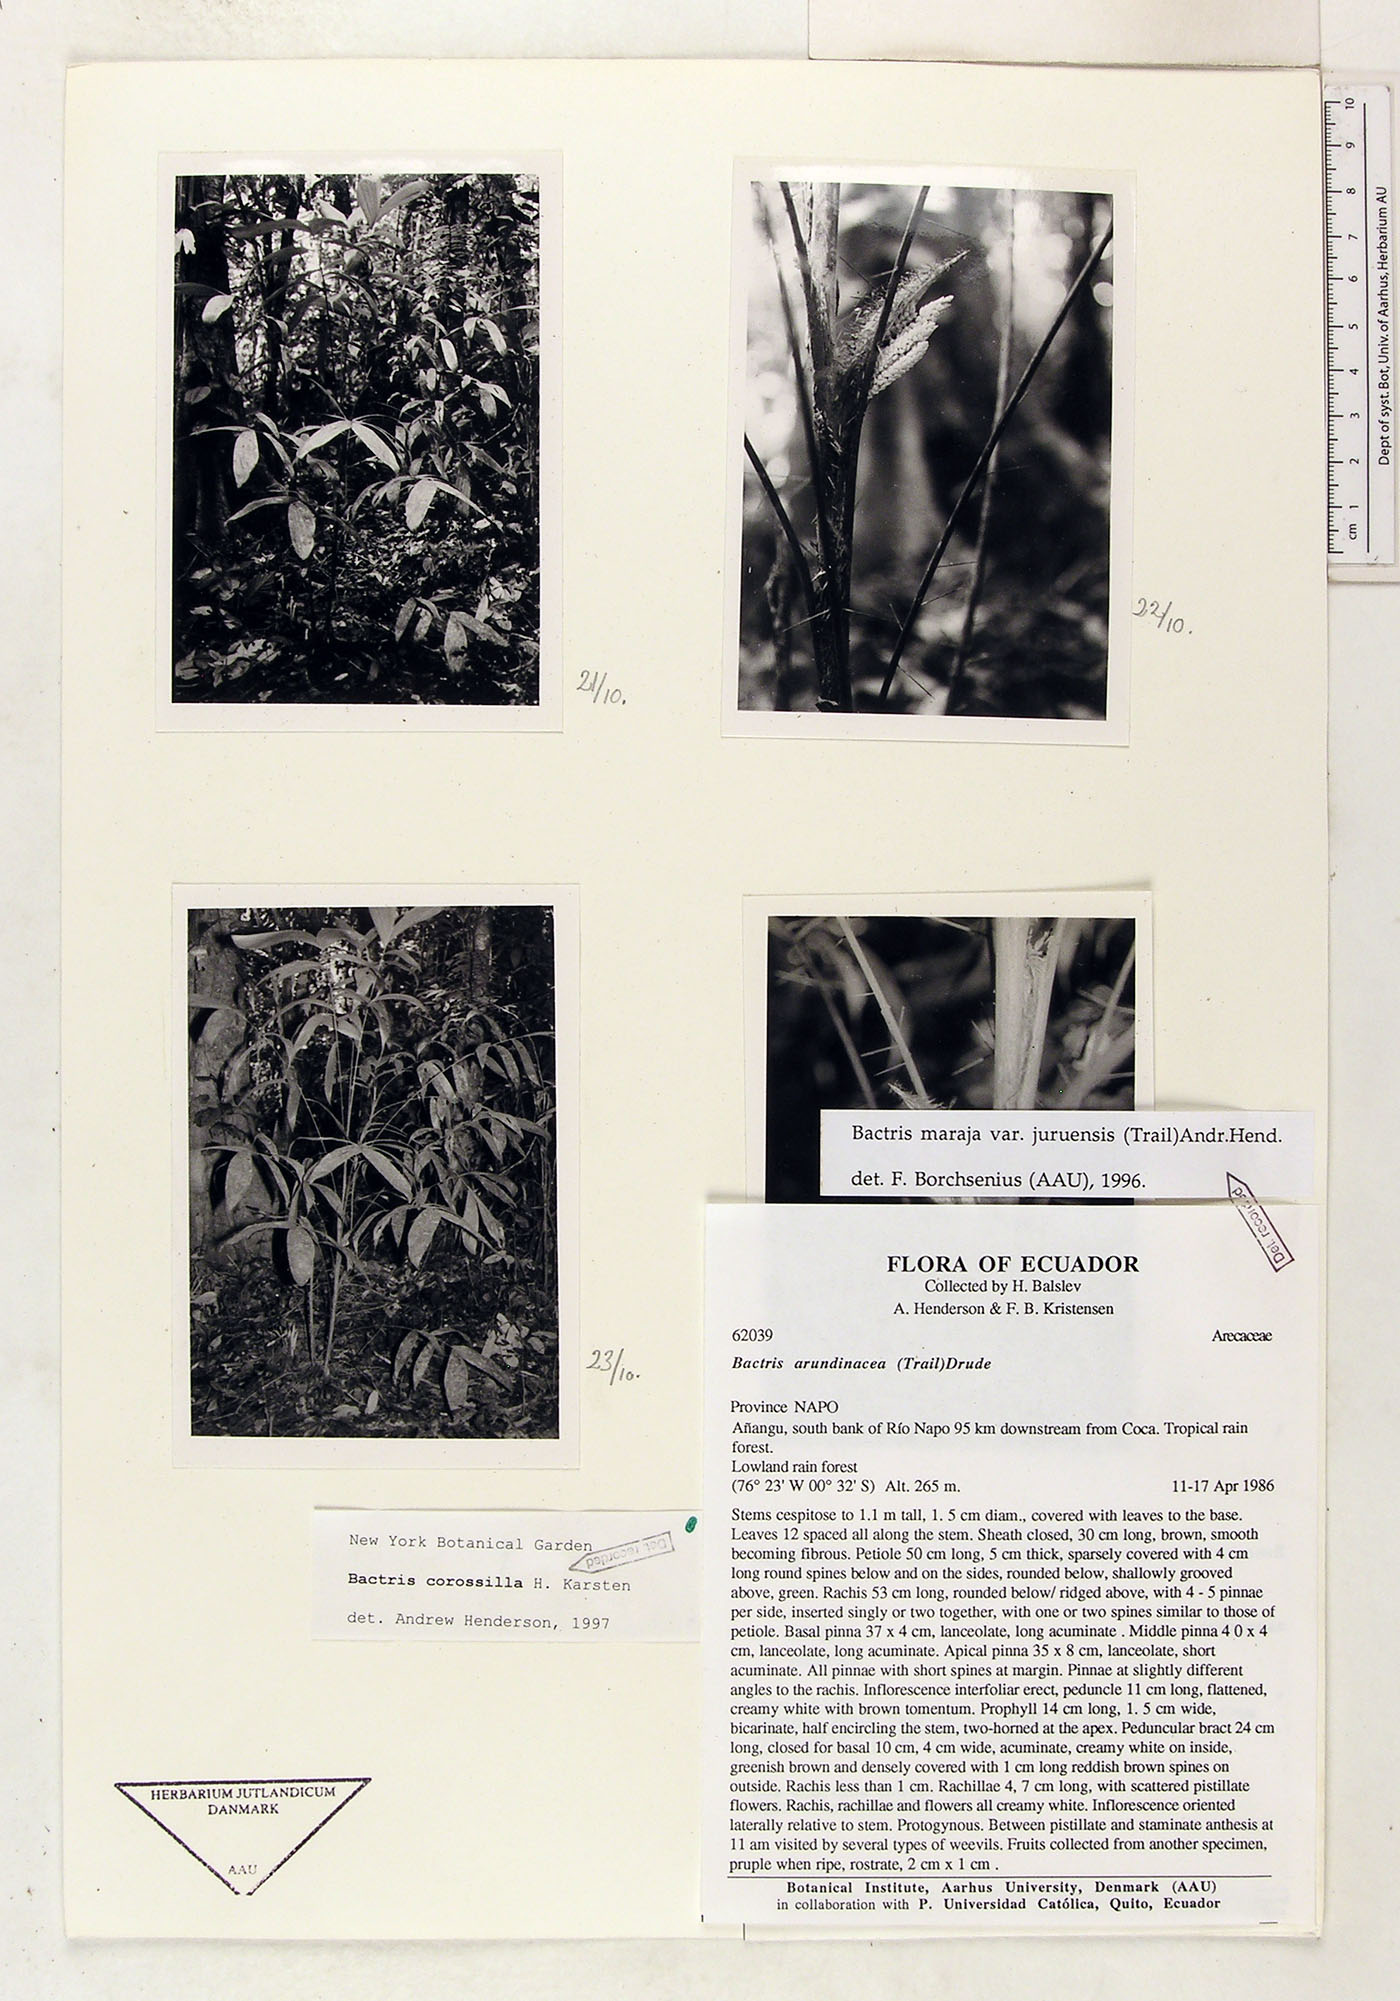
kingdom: Plantae
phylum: Tracheophyta
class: Liliopsida
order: Arecales
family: Arecaceae
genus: Bactris
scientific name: Bactris corossilla
